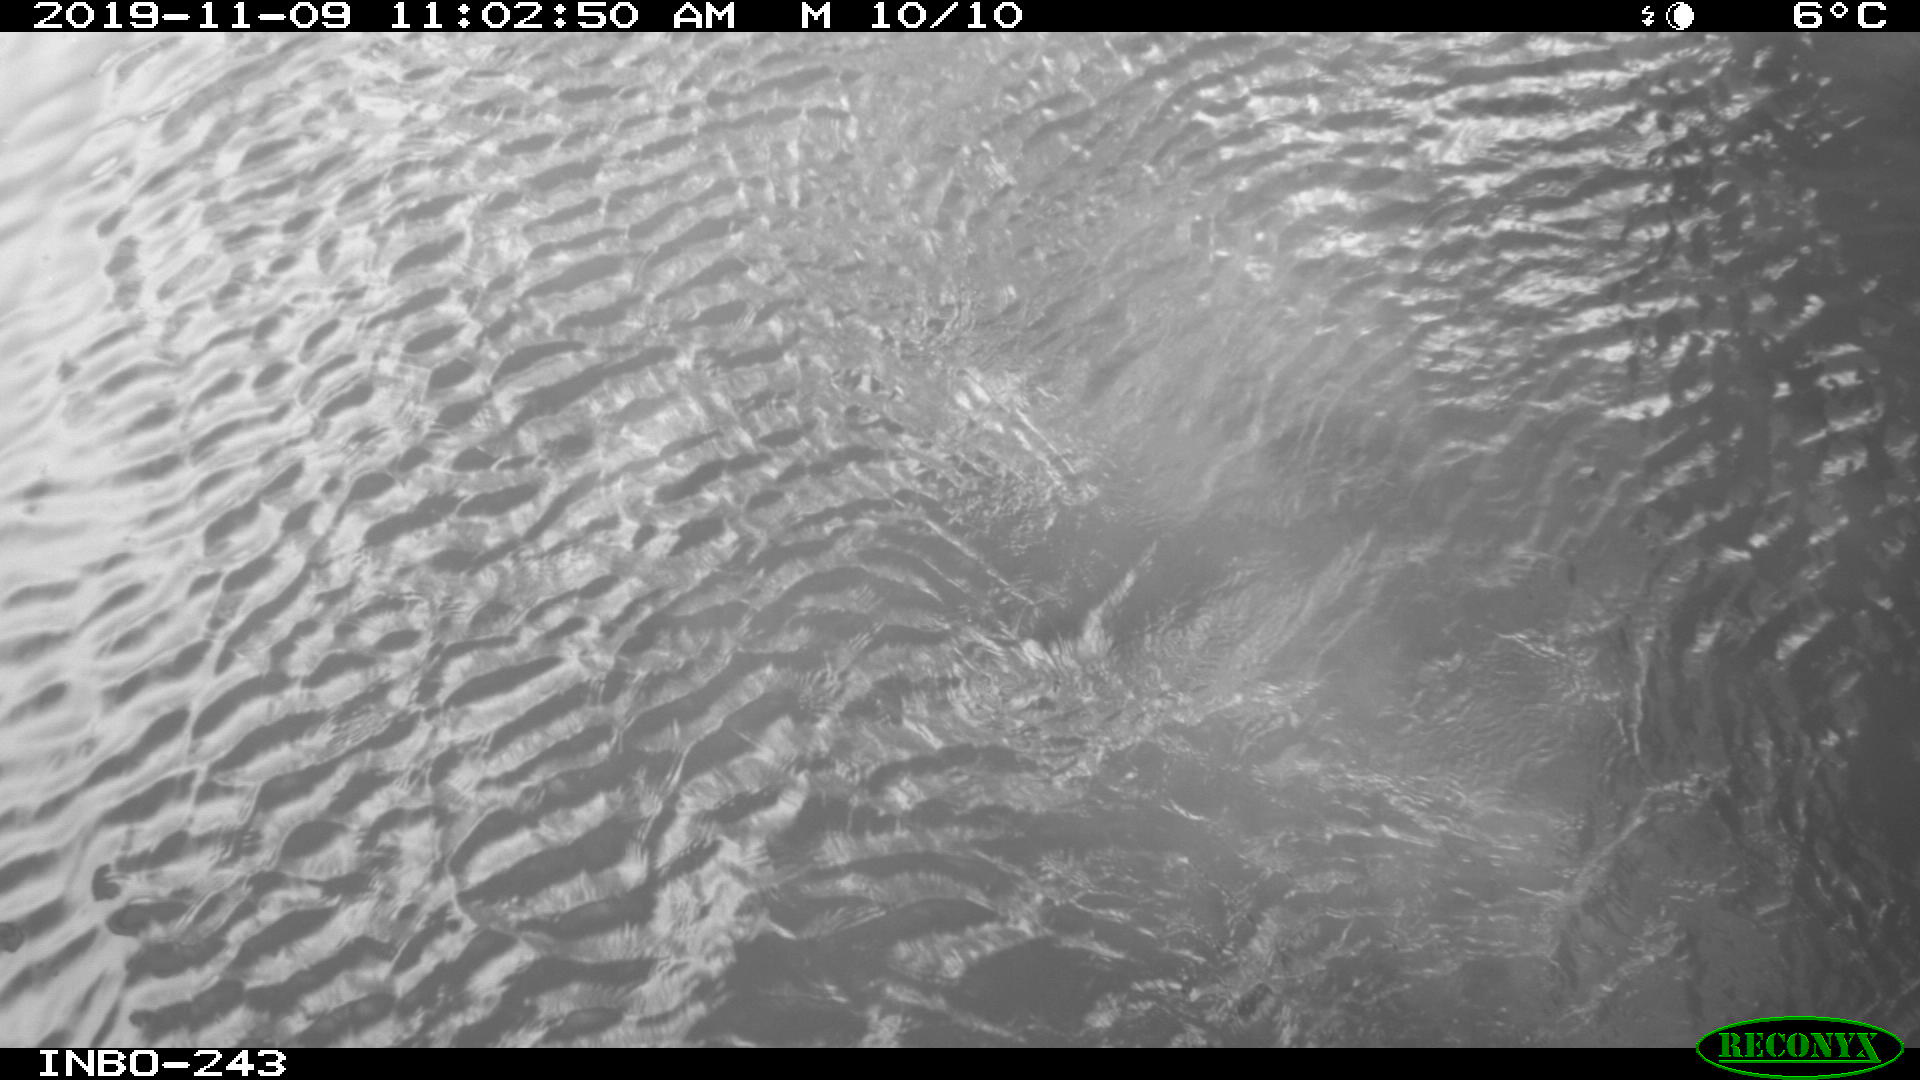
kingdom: Animalia
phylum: Chordata
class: Mammalia
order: Carnivora
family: Canidae
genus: Canis
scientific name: Canis lupus
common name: Gray wolf
